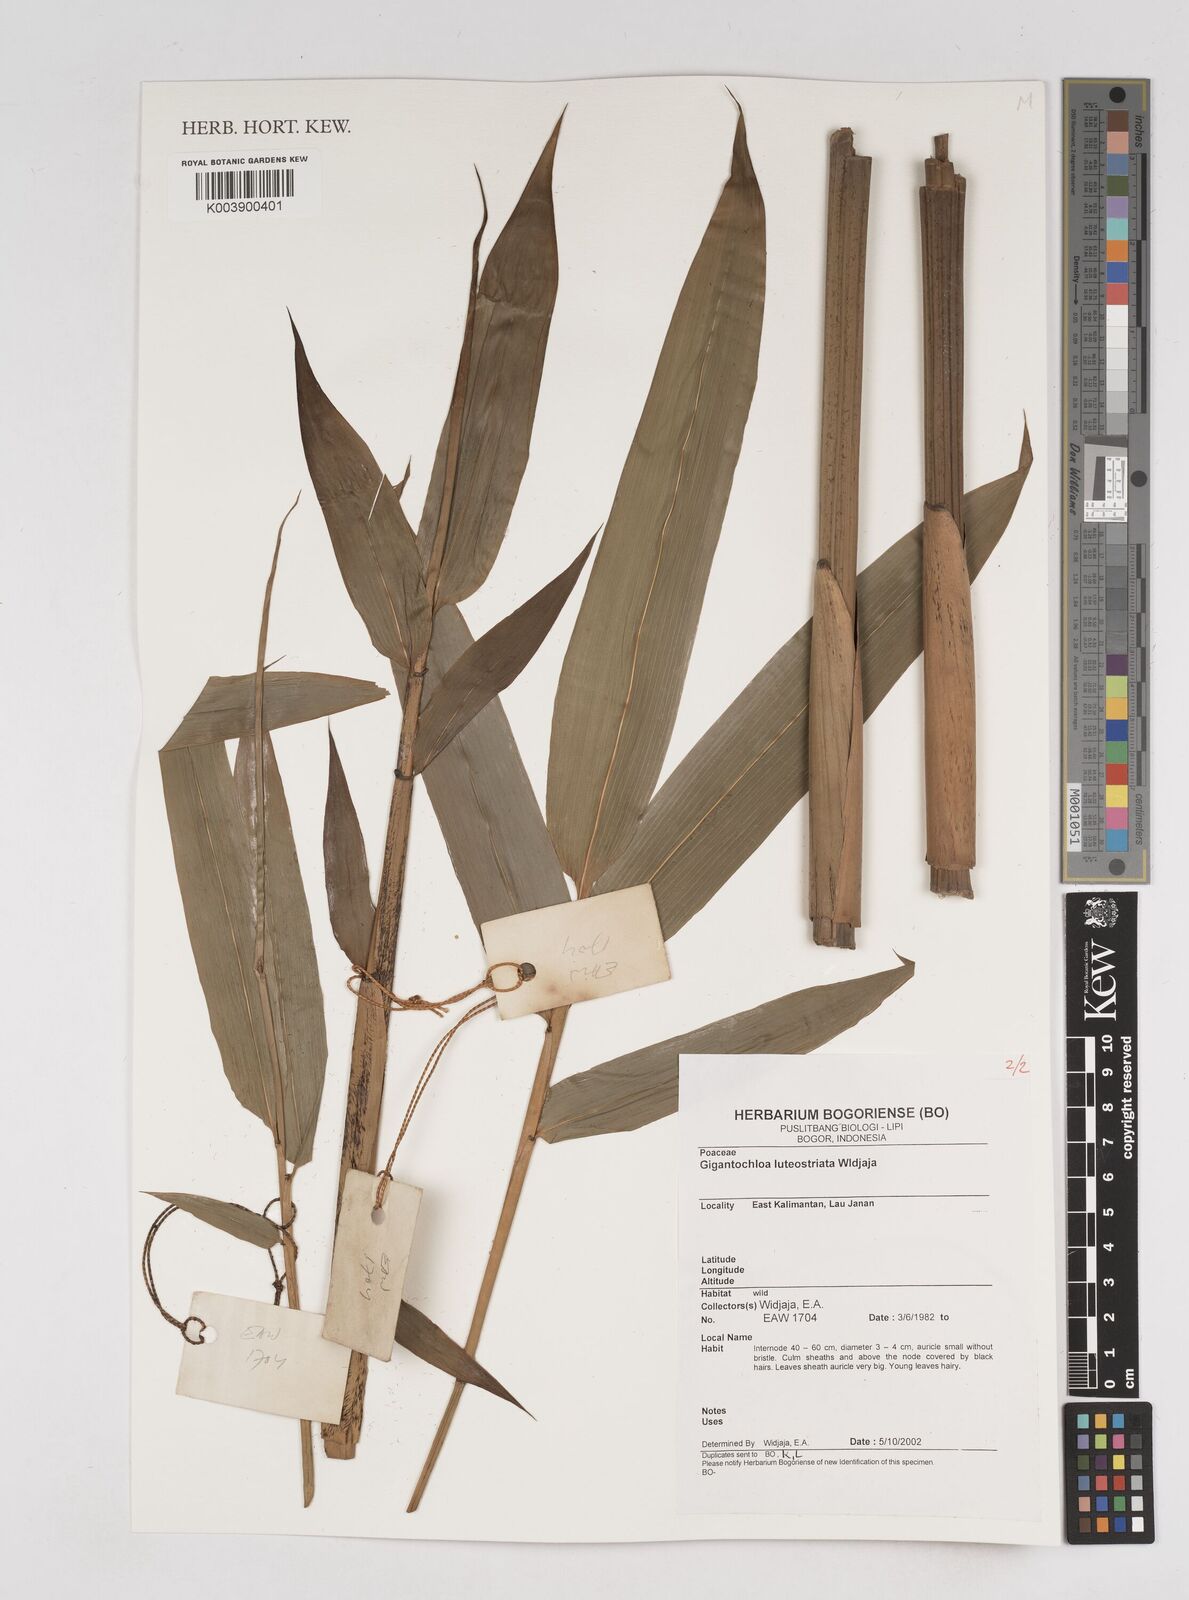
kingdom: Plantae
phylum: Tracheophyta
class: Liliopsida
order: Poales
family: Poaceae
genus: Gigantochloa
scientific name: Gigantochloa luteostriata
